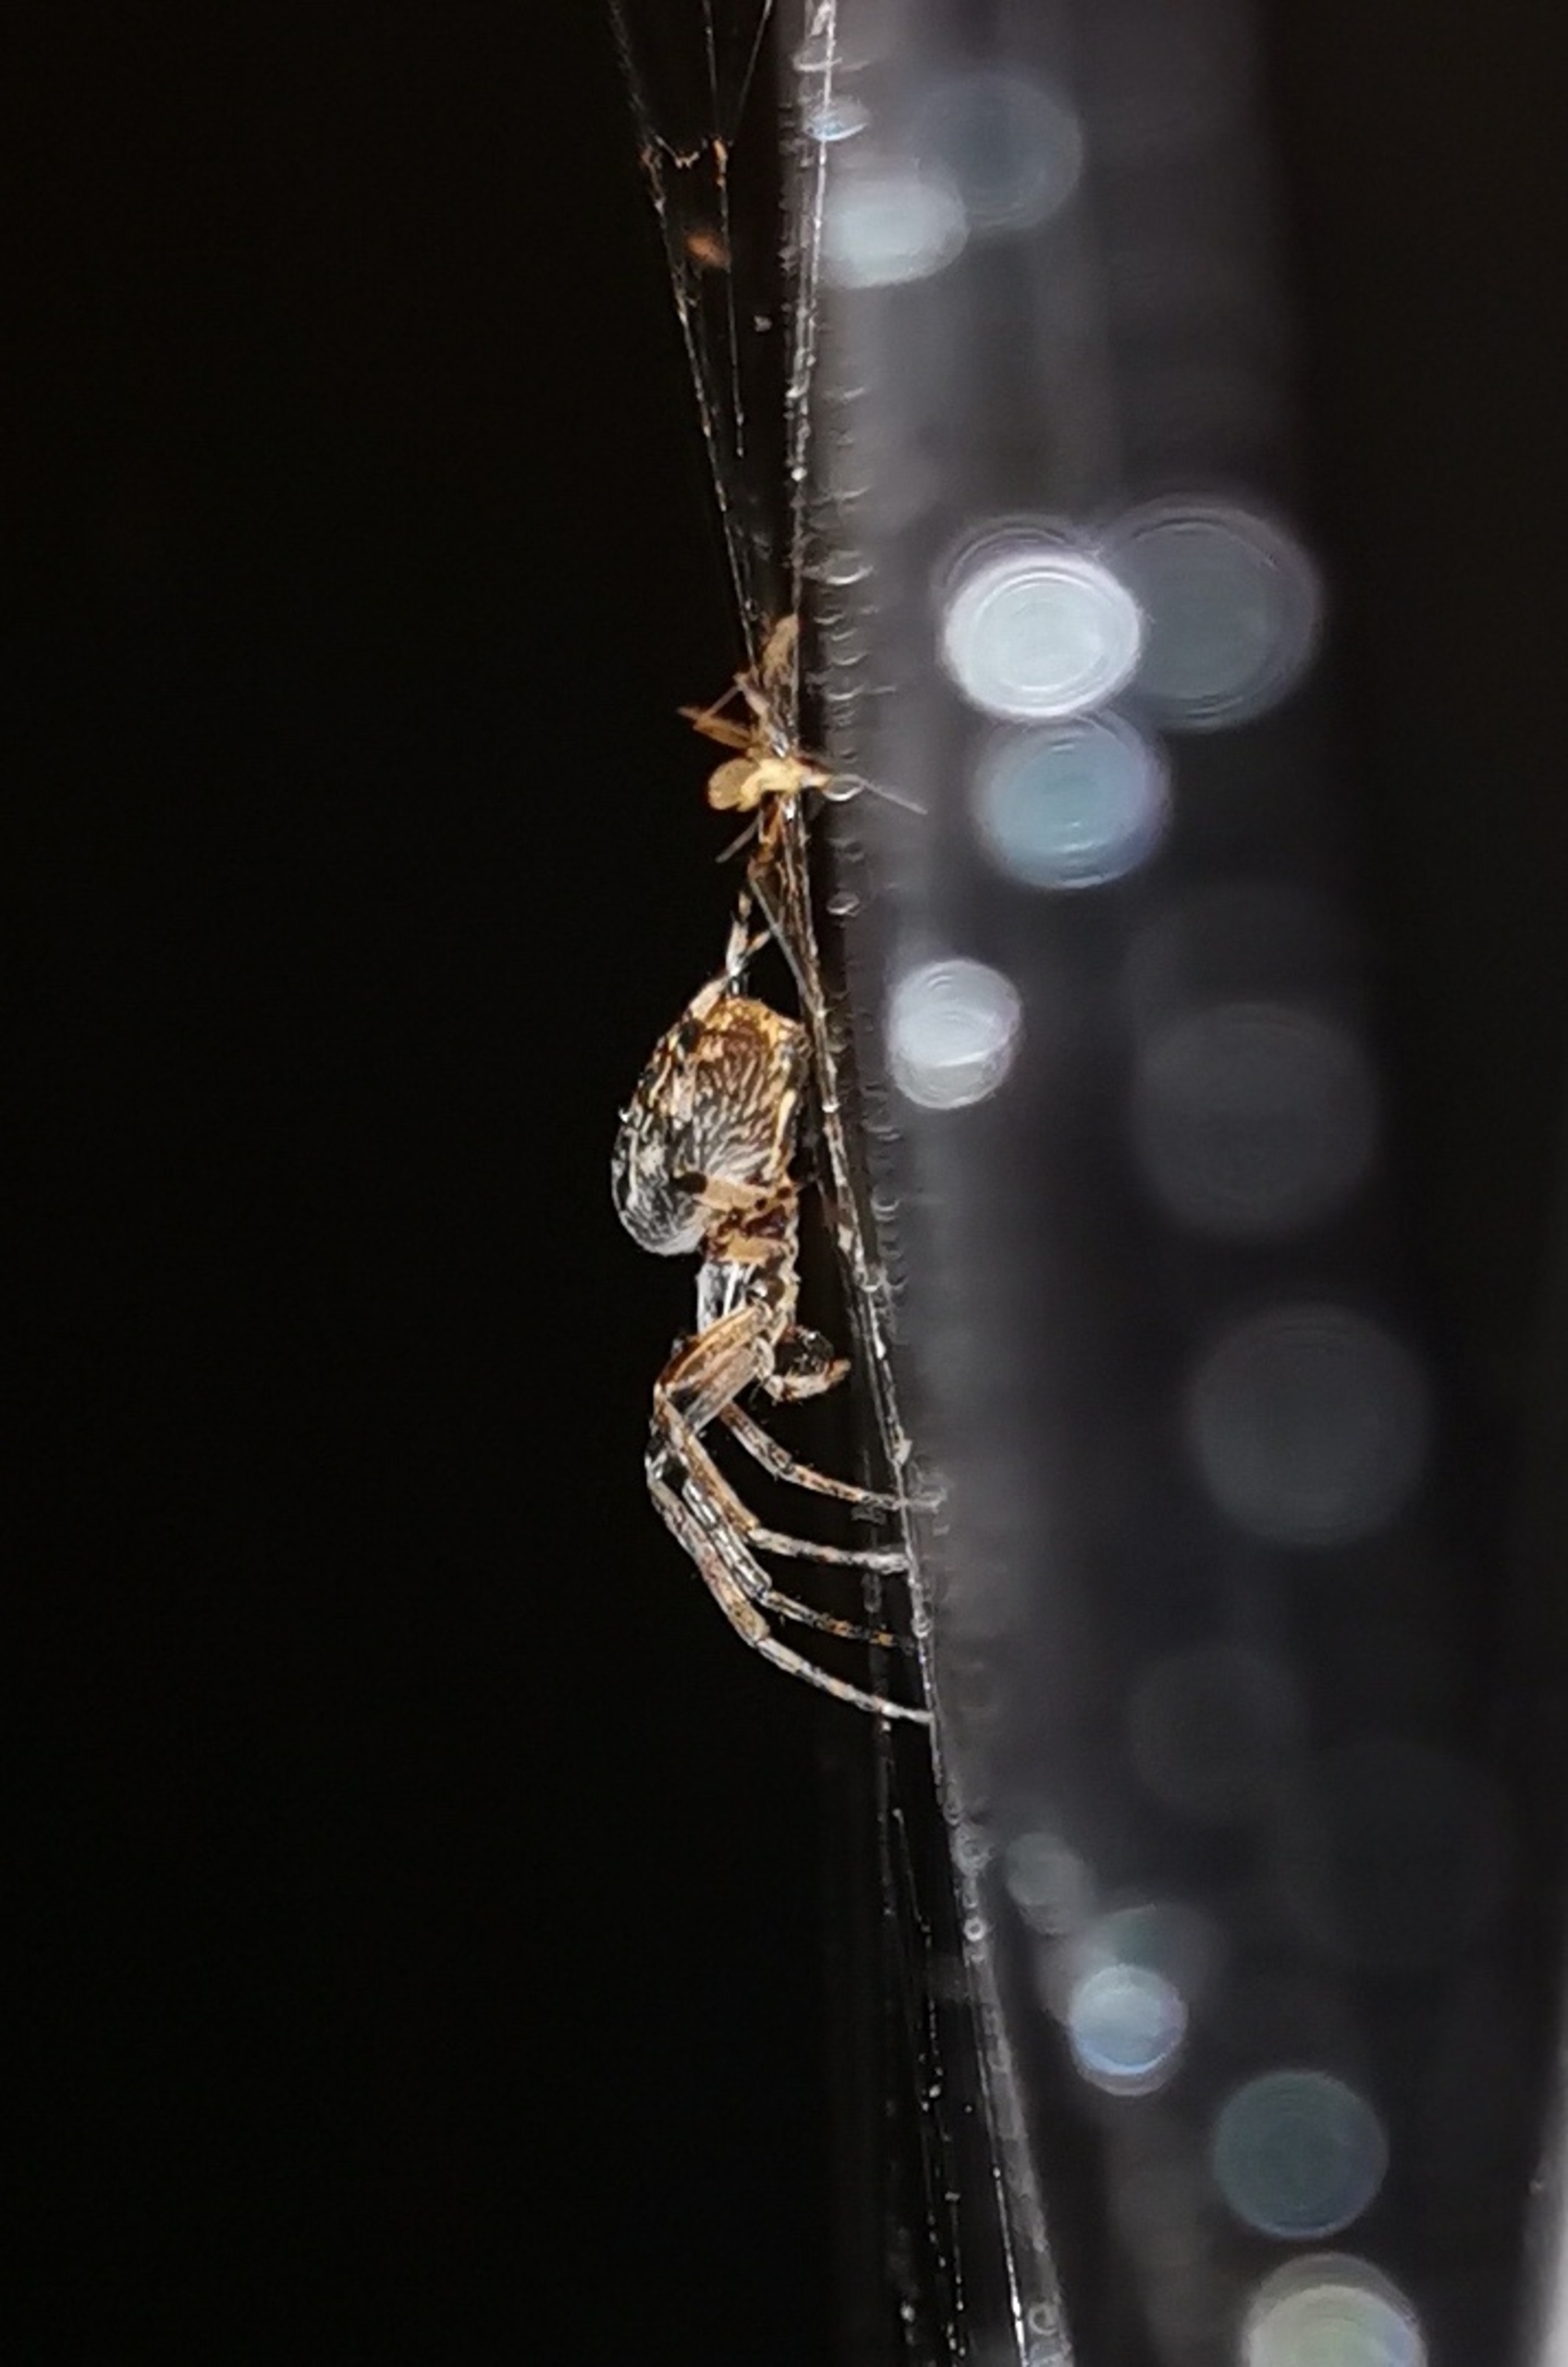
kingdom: Animalia
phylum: Arthropoda
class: Arachnida
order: Araneae
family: Araneidae
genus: Larinioides
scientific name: Larinioides sclopetarius
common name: Bolværksedderkop
